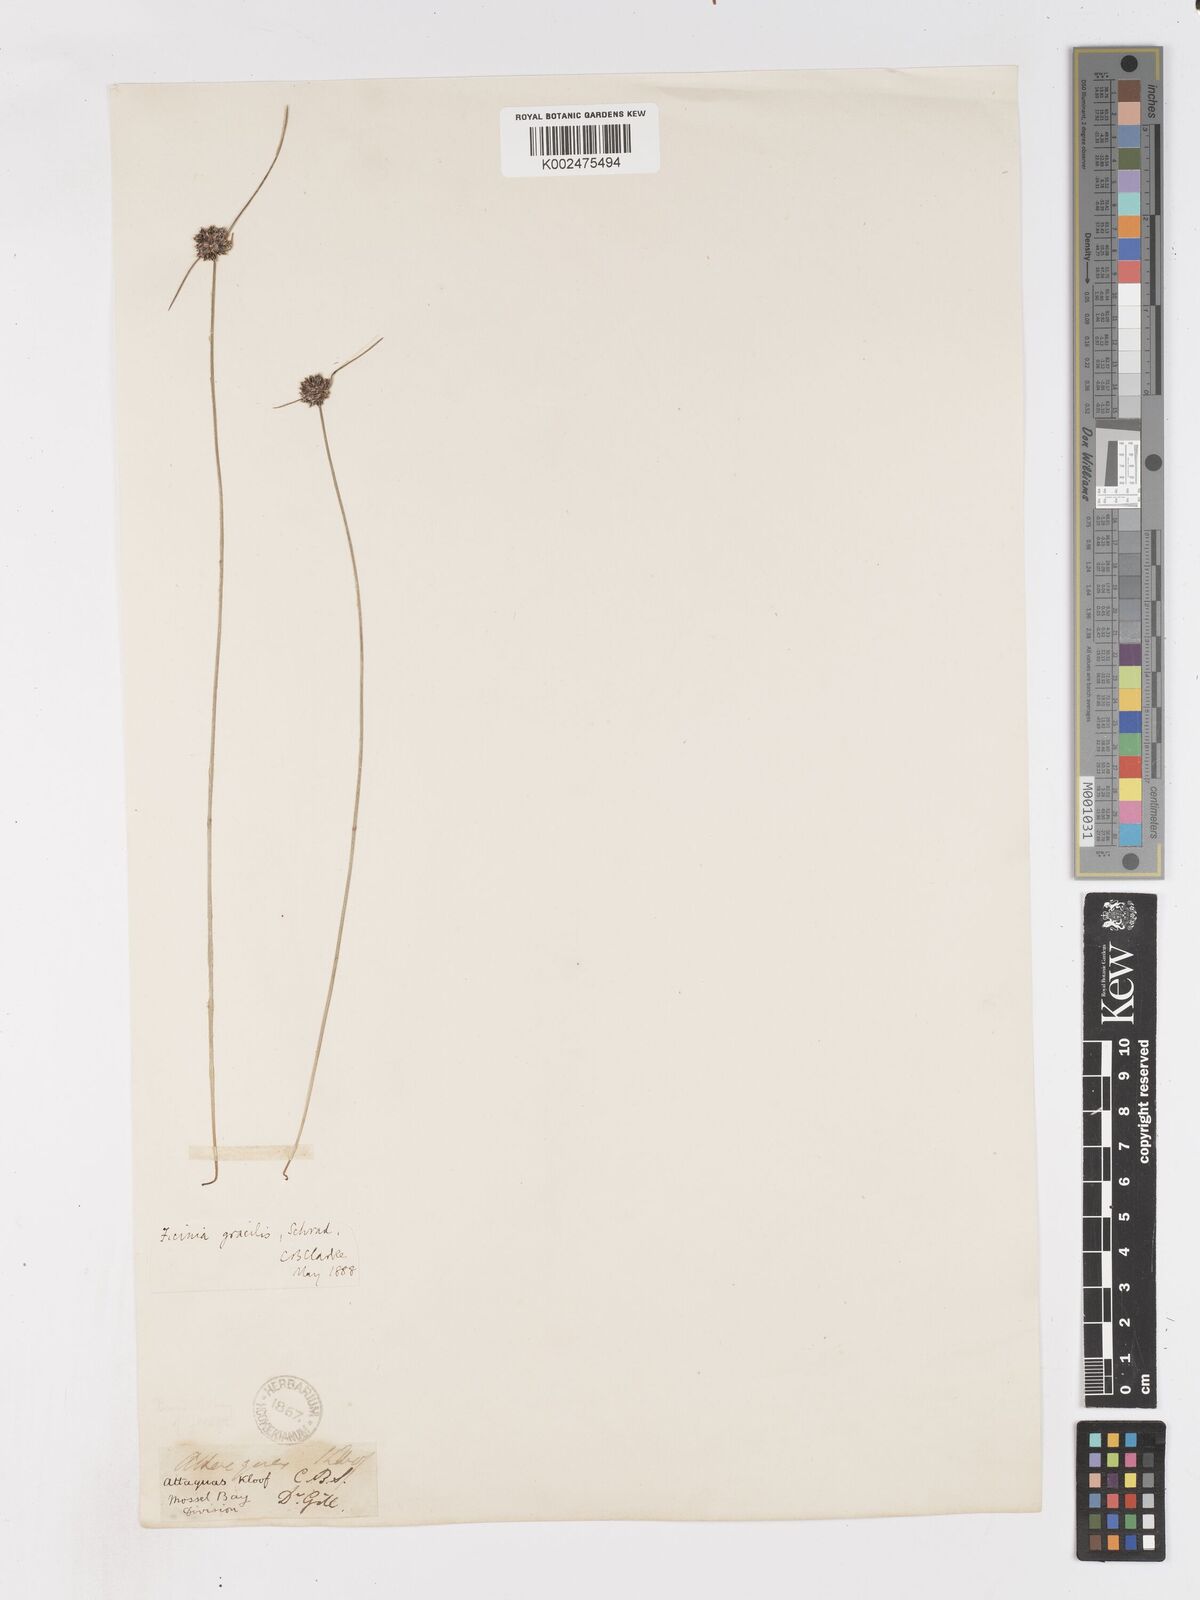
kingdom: Plantae
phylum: Tracheophyta
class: Liliopsida
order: Poales
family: Cyperaceae
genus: Ficinia
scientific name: Ficinia gracilis
